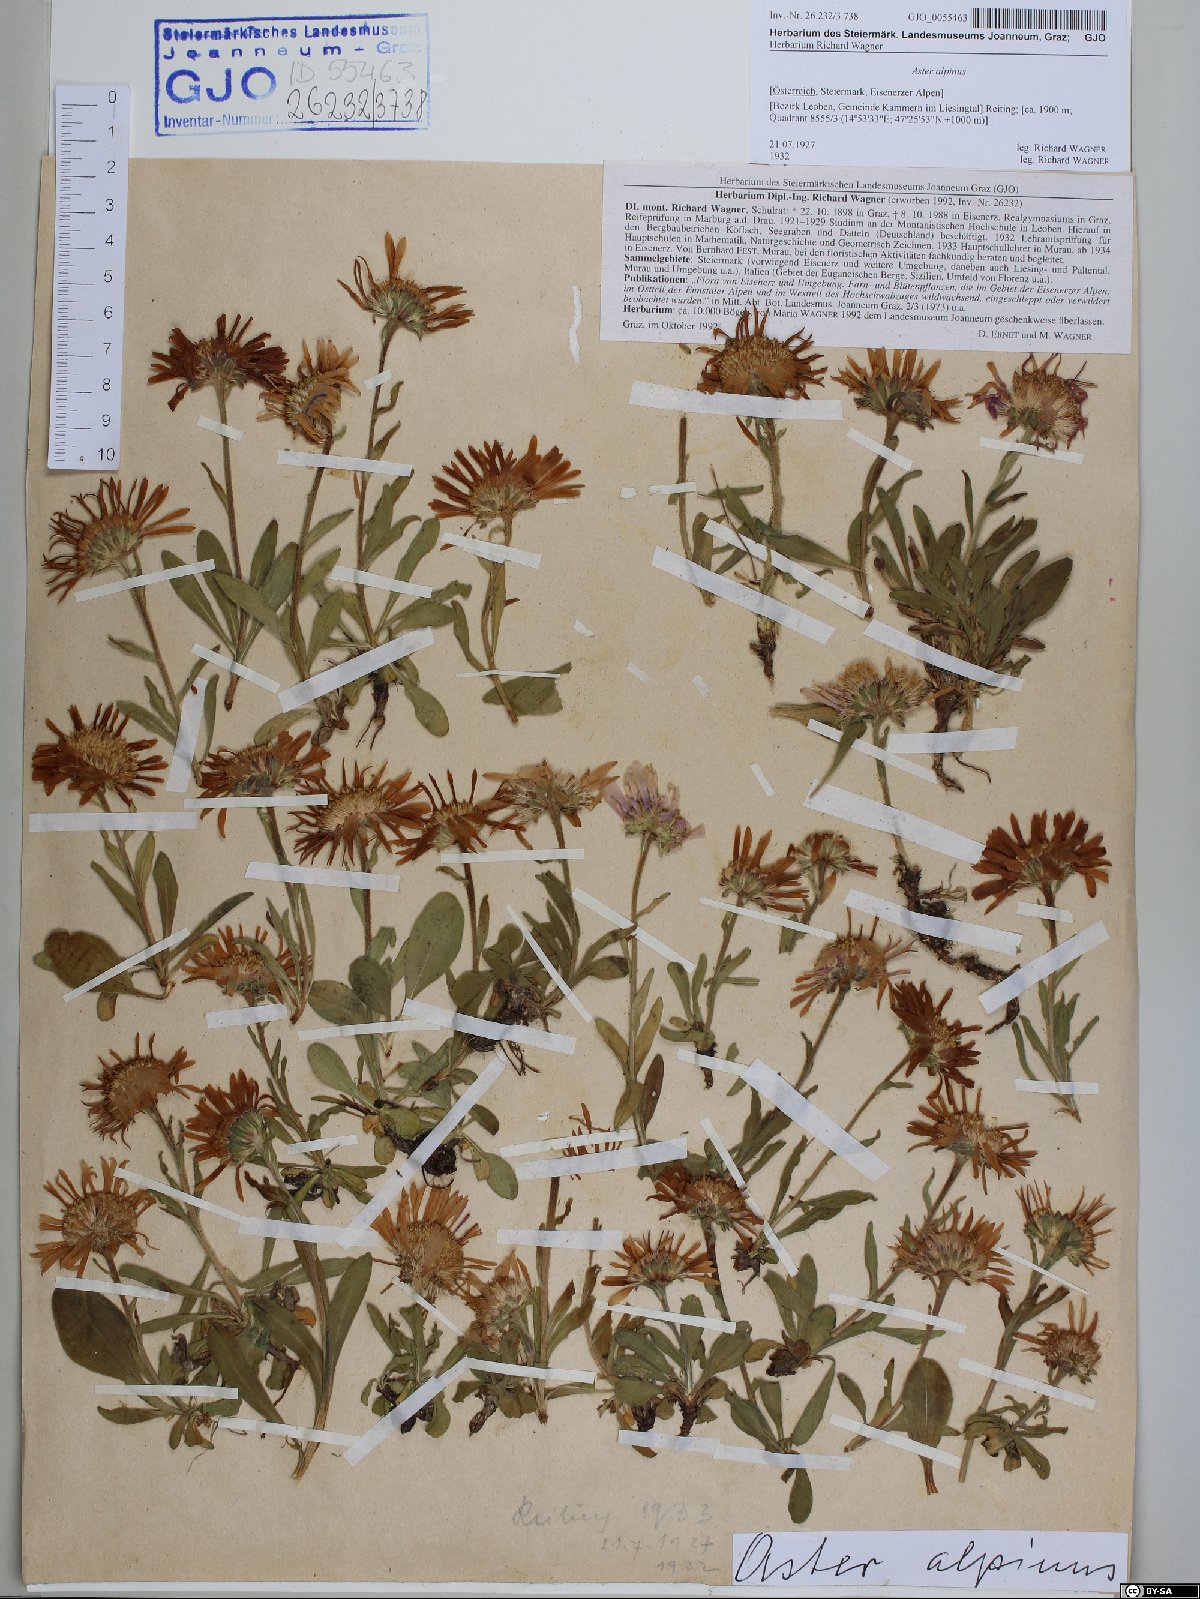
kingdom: Plantae
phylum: Tracheophyta
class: Magnoliopsida
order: Asterales
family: Asteraceae
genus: Aster
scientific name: Aster alpinus
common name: Alpine aster
